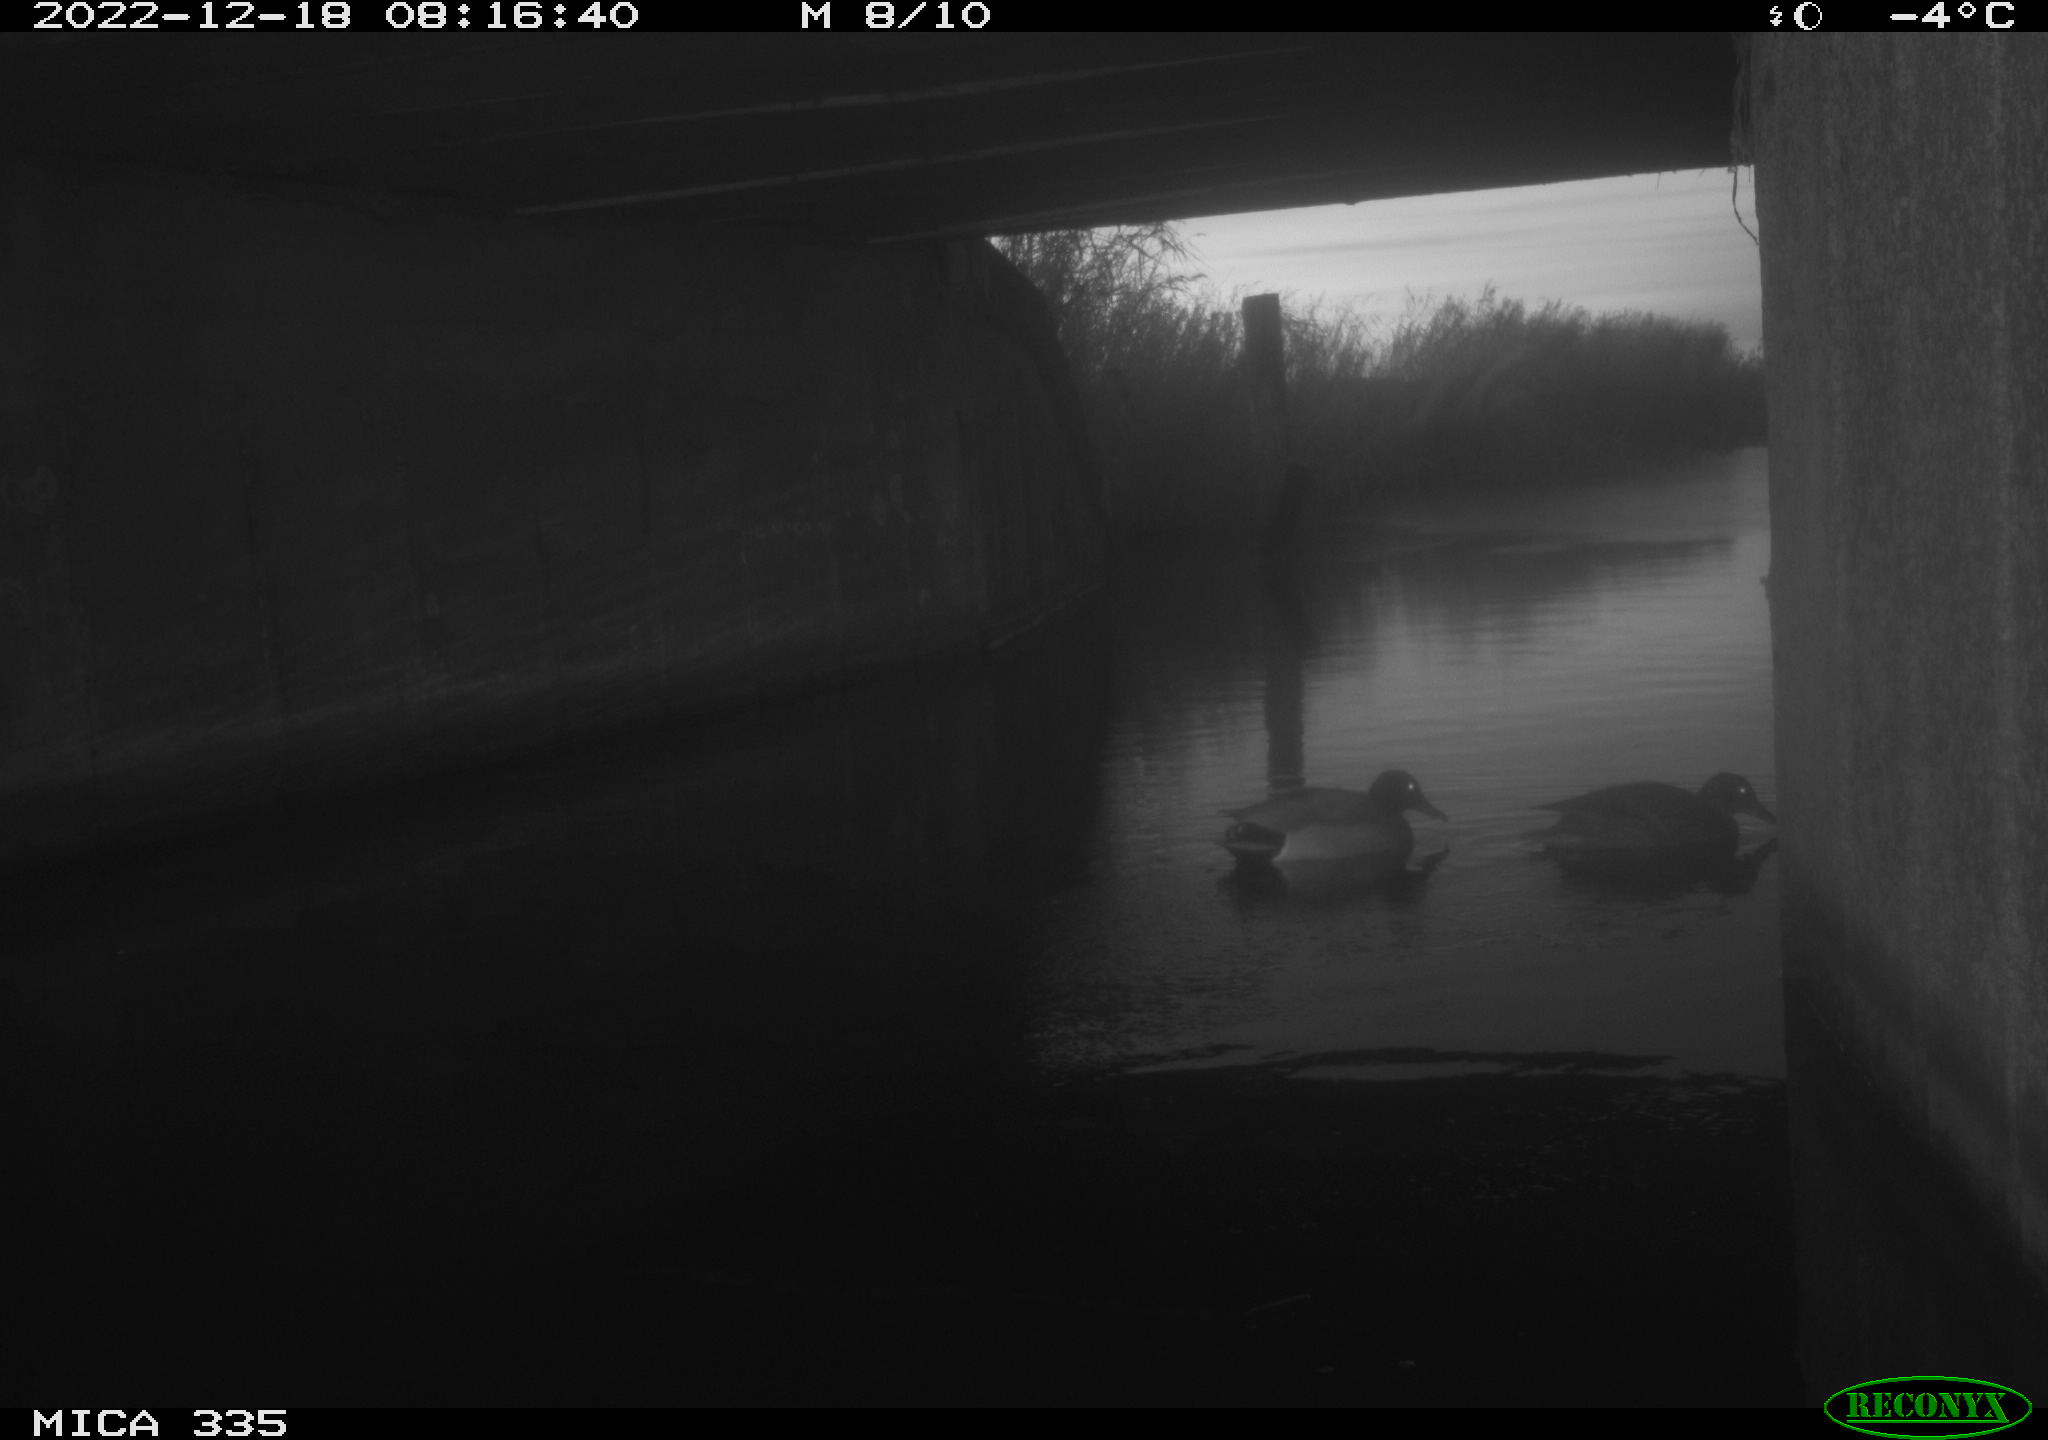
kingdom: Animalia
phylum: Chordata
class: Aves
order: Anseriformes
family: Anatidae
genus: Anas
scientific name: Anas
